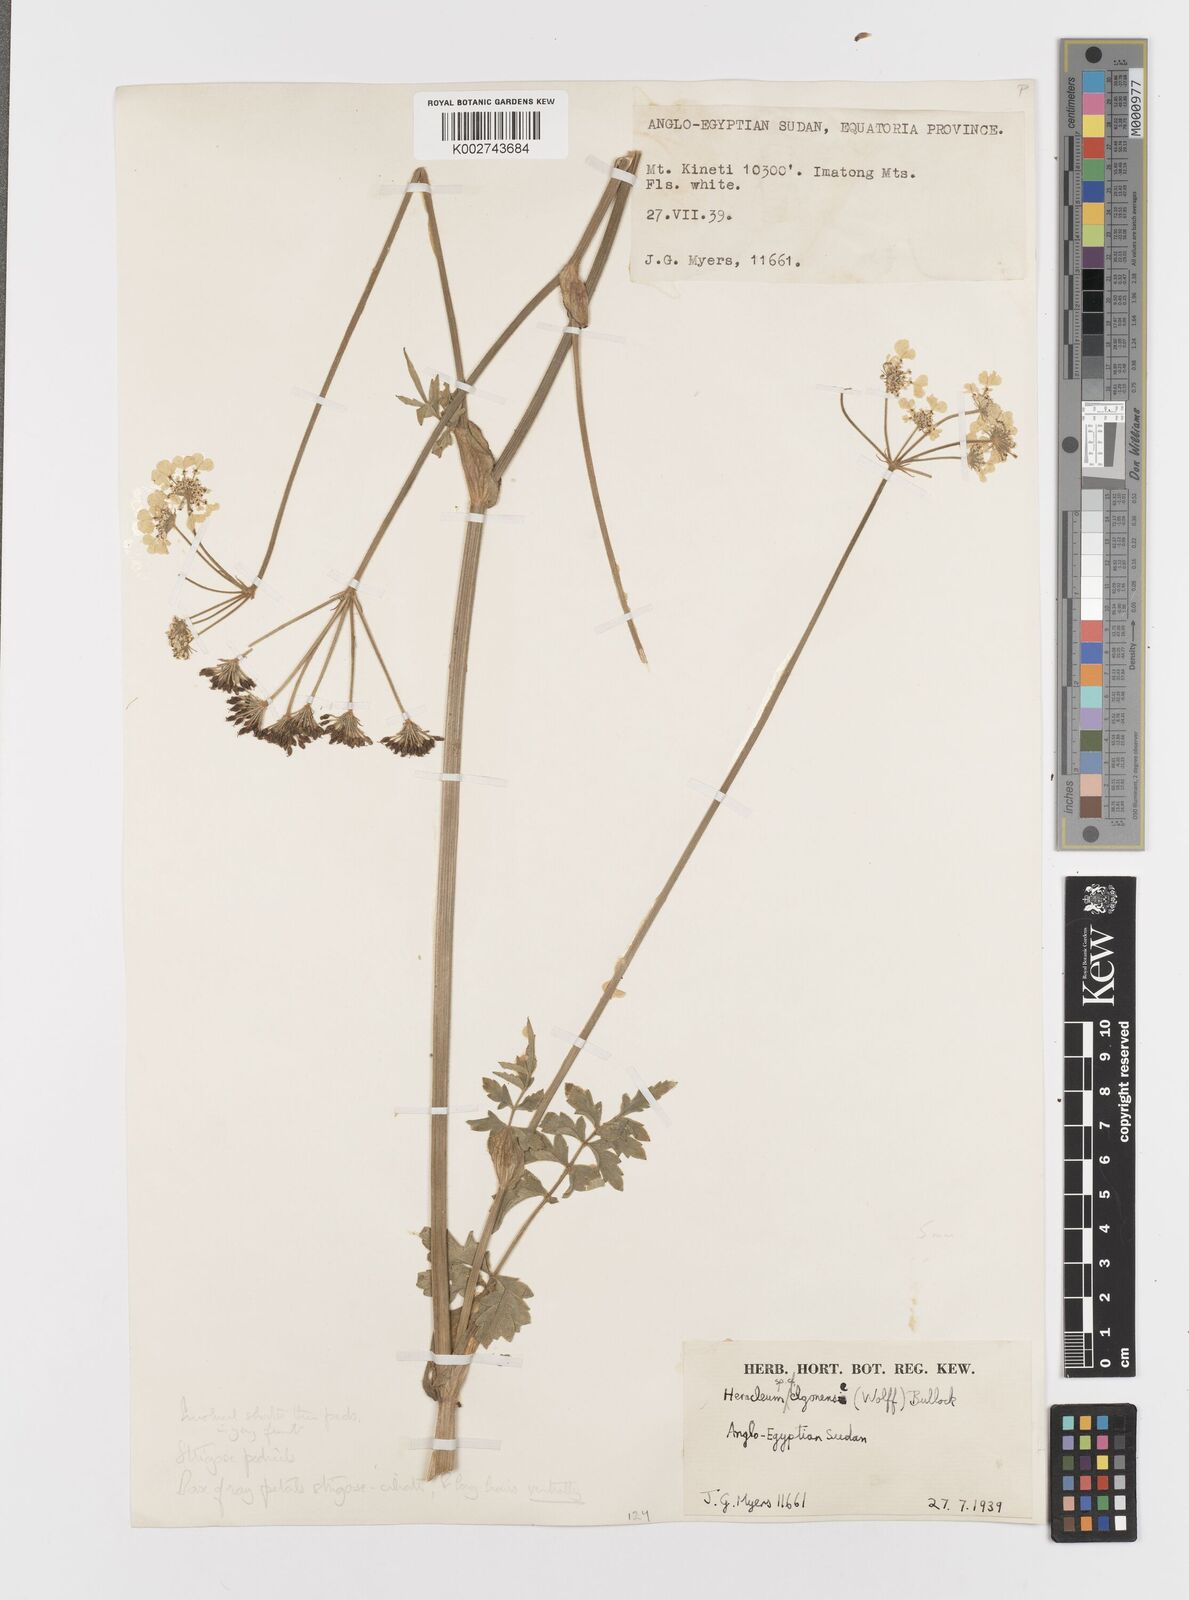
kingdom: Plantae
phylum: Tracheophyta
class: Magnoliopsida
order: Apiales
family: Apiaceae
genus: Heracleum
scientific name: Heracleum
